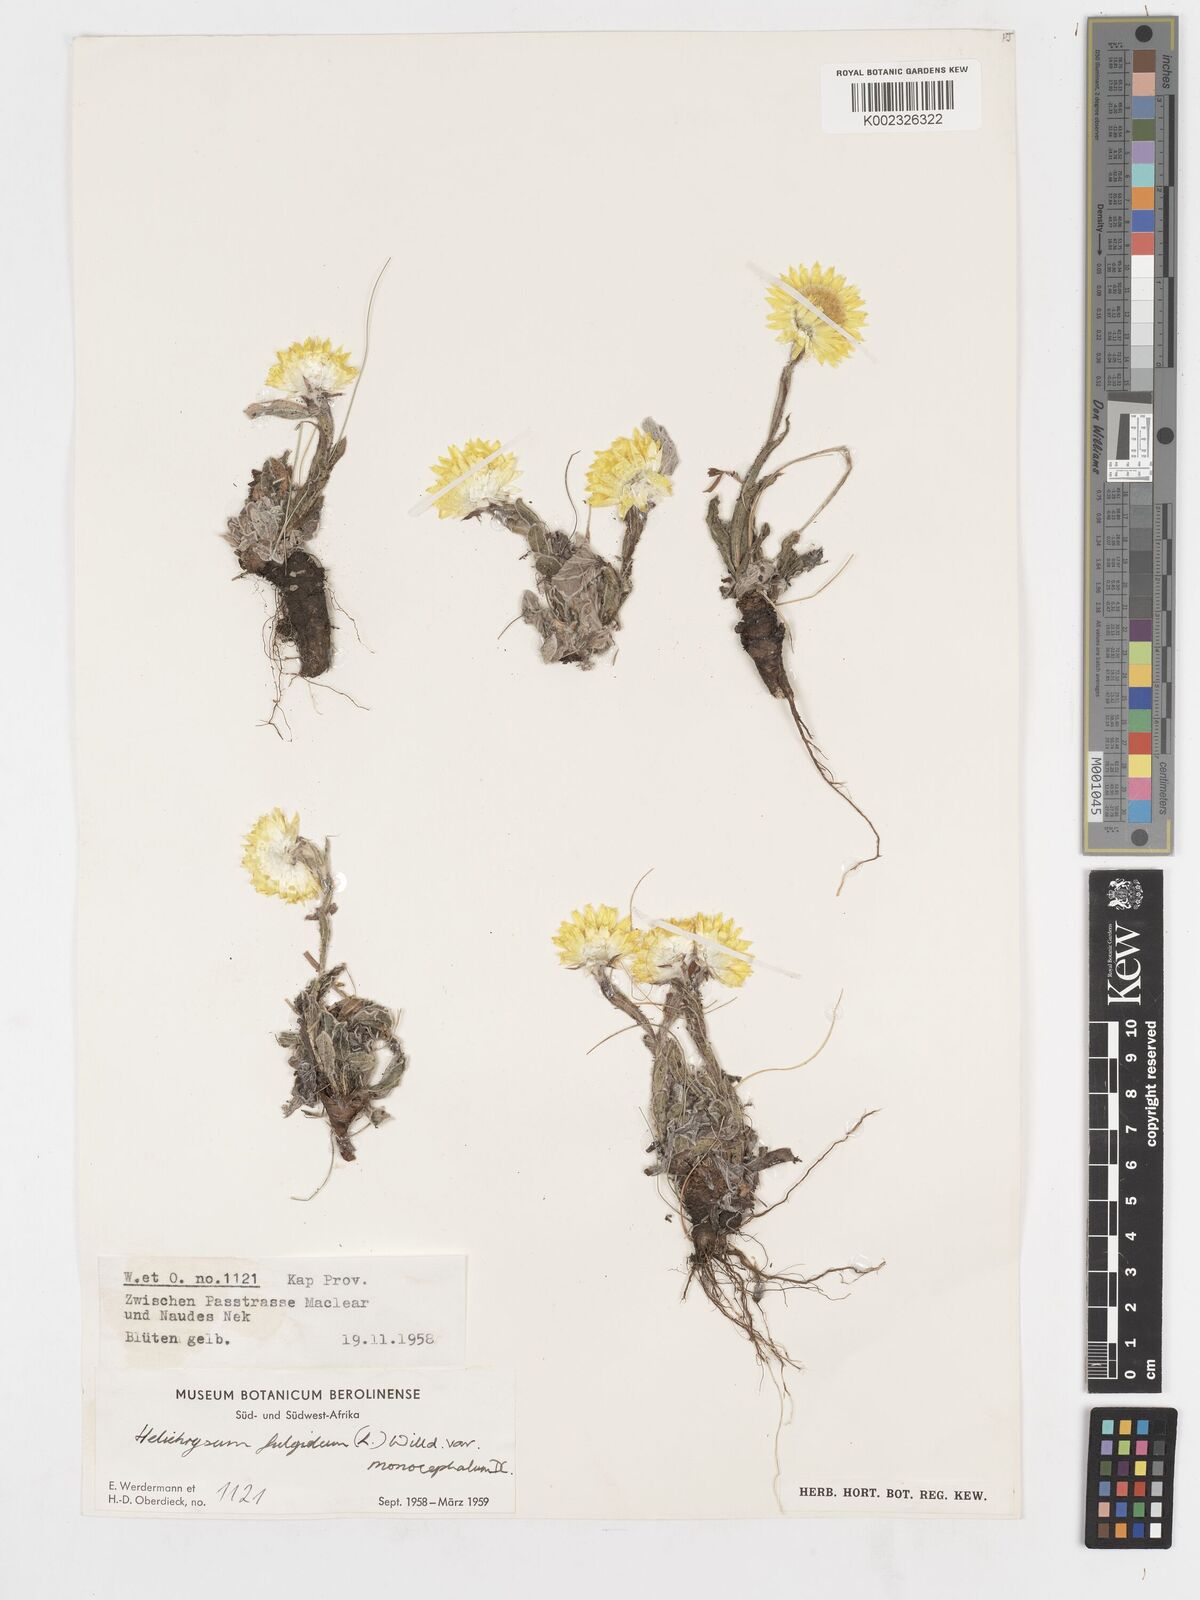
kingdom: Plantae
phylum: Tracheophyta
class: Magnoliopsida
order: Asterales
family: Asteraceae
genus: Helichrysum
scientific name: Helichrysum aureum
